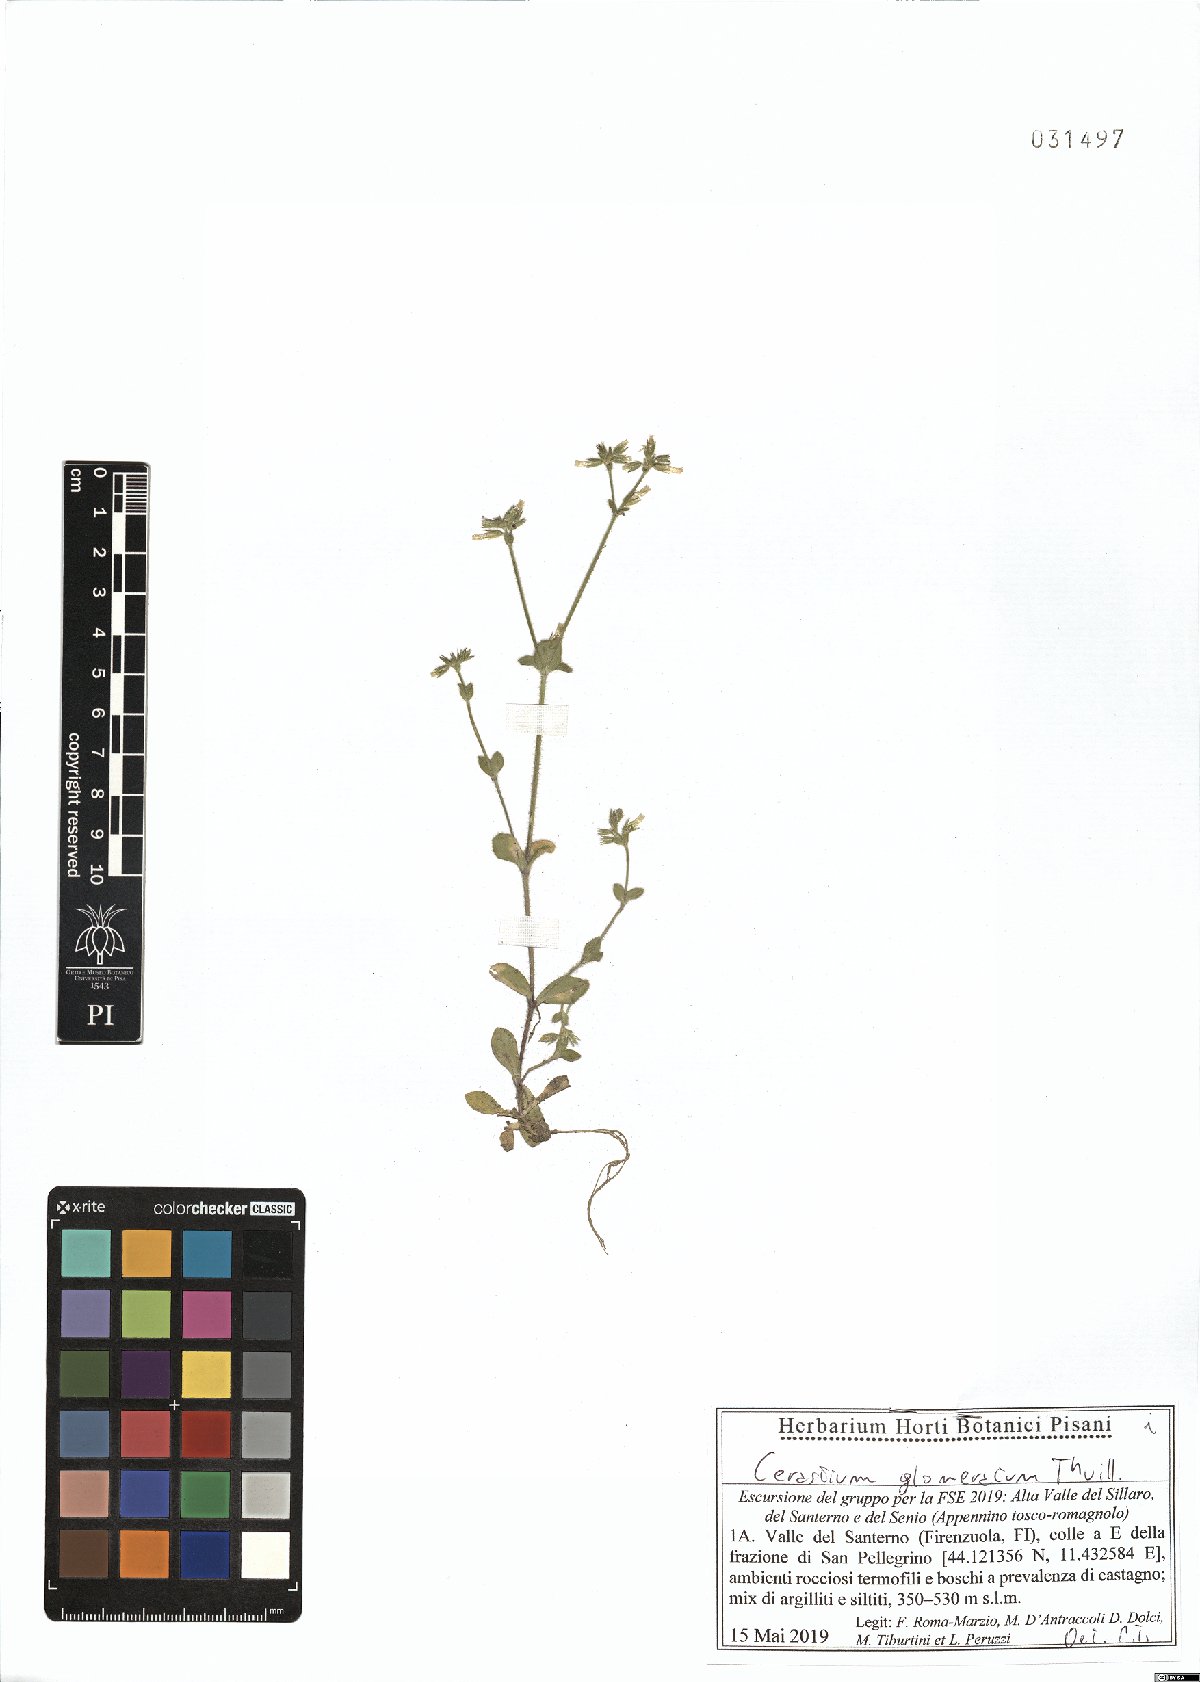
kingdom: Plantae
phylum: Tracheophyta
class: Magnoliopsida
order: Caryophyllales
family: Caryophyllaceae
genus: Cerastium
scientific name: Cerastium glomeratum
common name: Sticky chickweed
